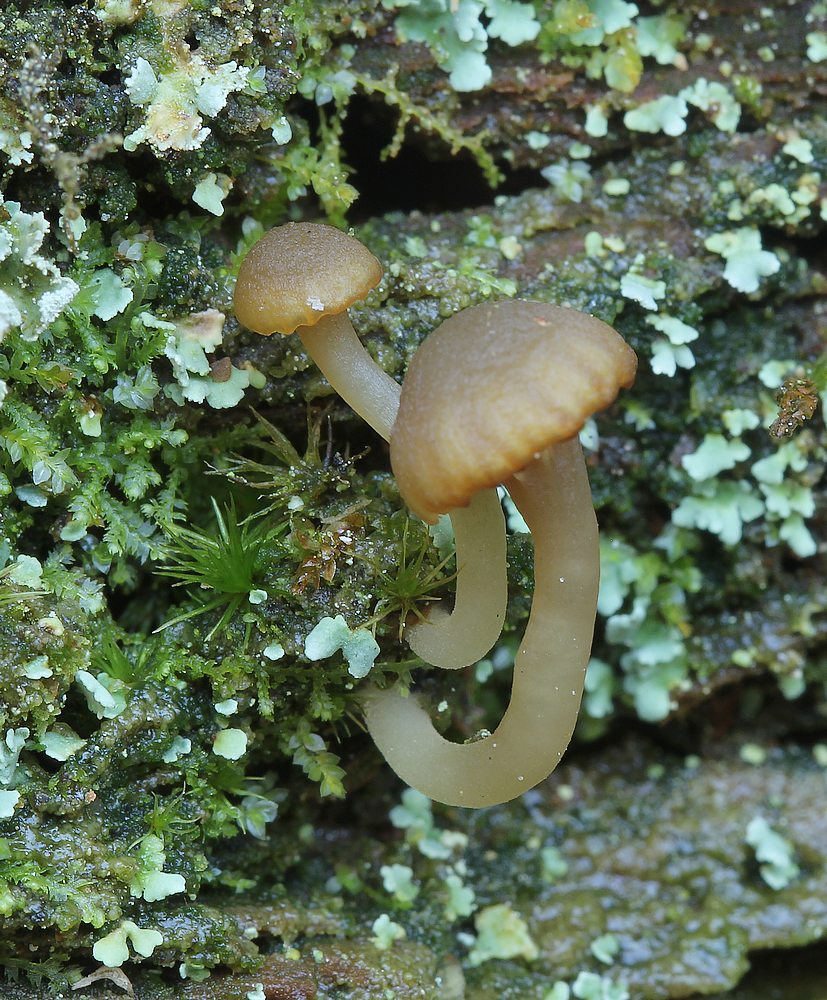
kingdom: Fungi
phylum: Basidiomycota
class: Agaricomycetes
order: Agaricales
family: Hygrophoraceae
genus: Lichenomphalia
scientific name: Lichenomphalia umbellifera
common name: tørve-lavhat
